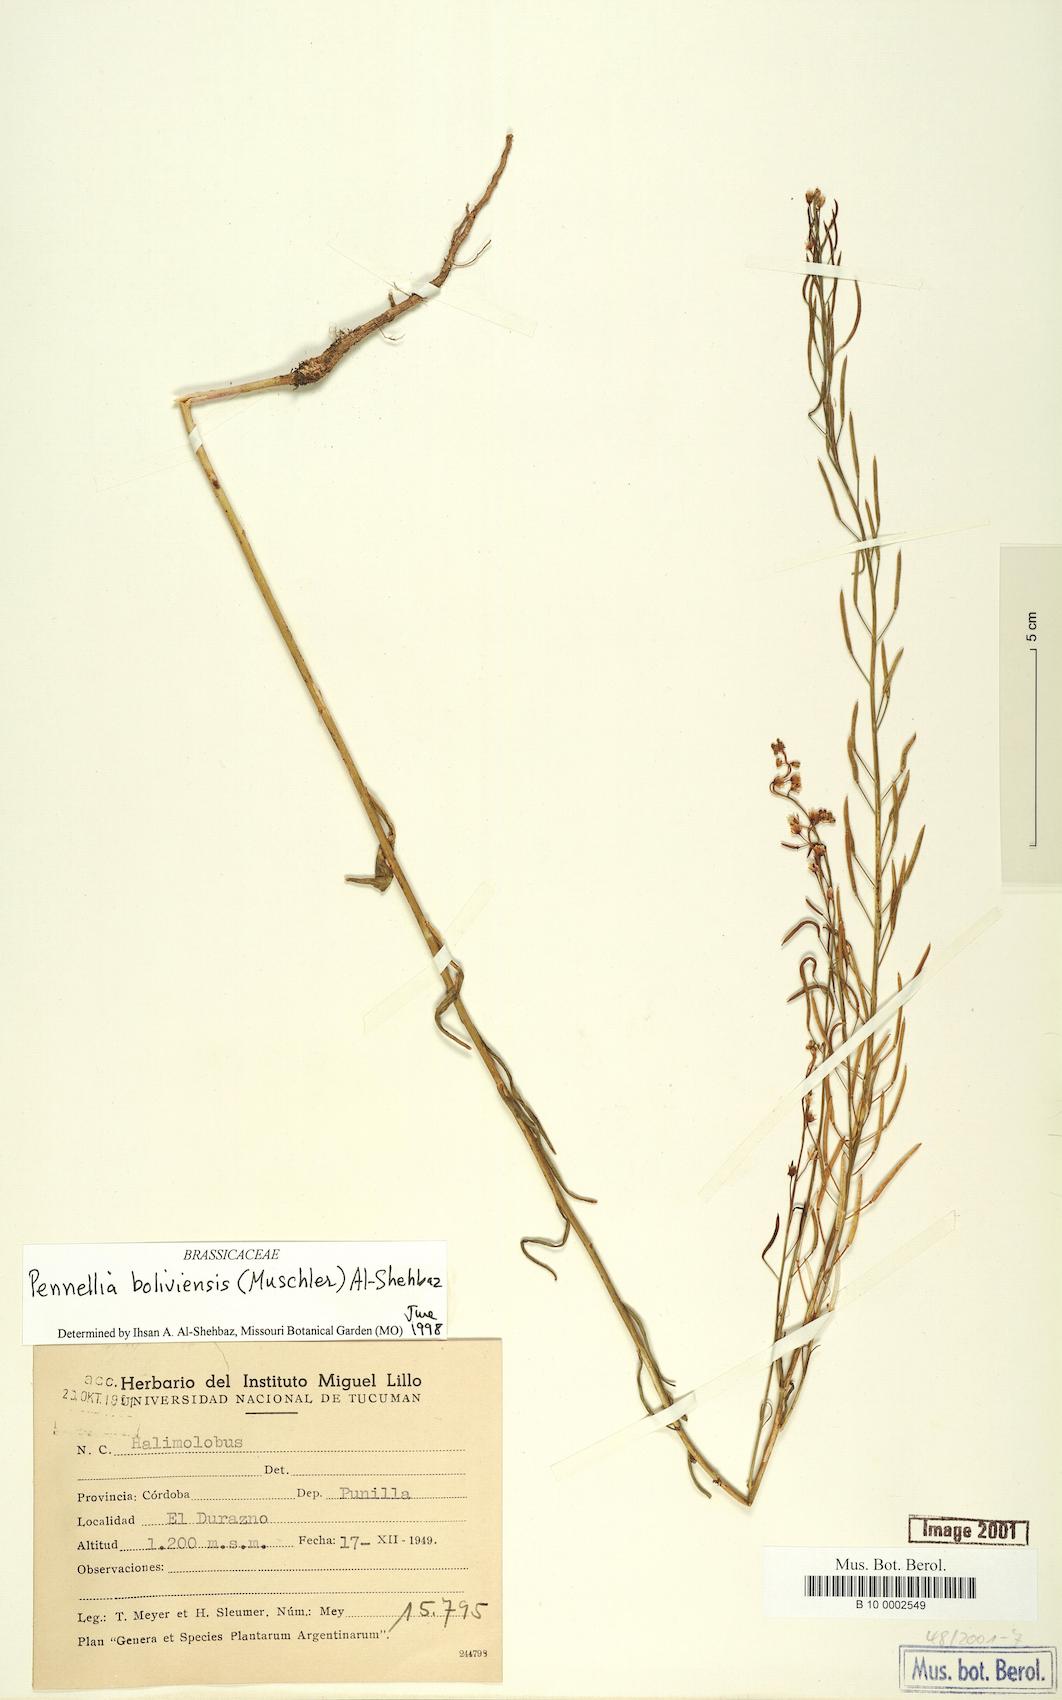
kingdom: Plantae
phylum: Tracheophyta
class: Magnoliopsida
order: Brassicales
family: Brassicaceae
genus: Pennellia
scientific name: Pennellia boliviensis
